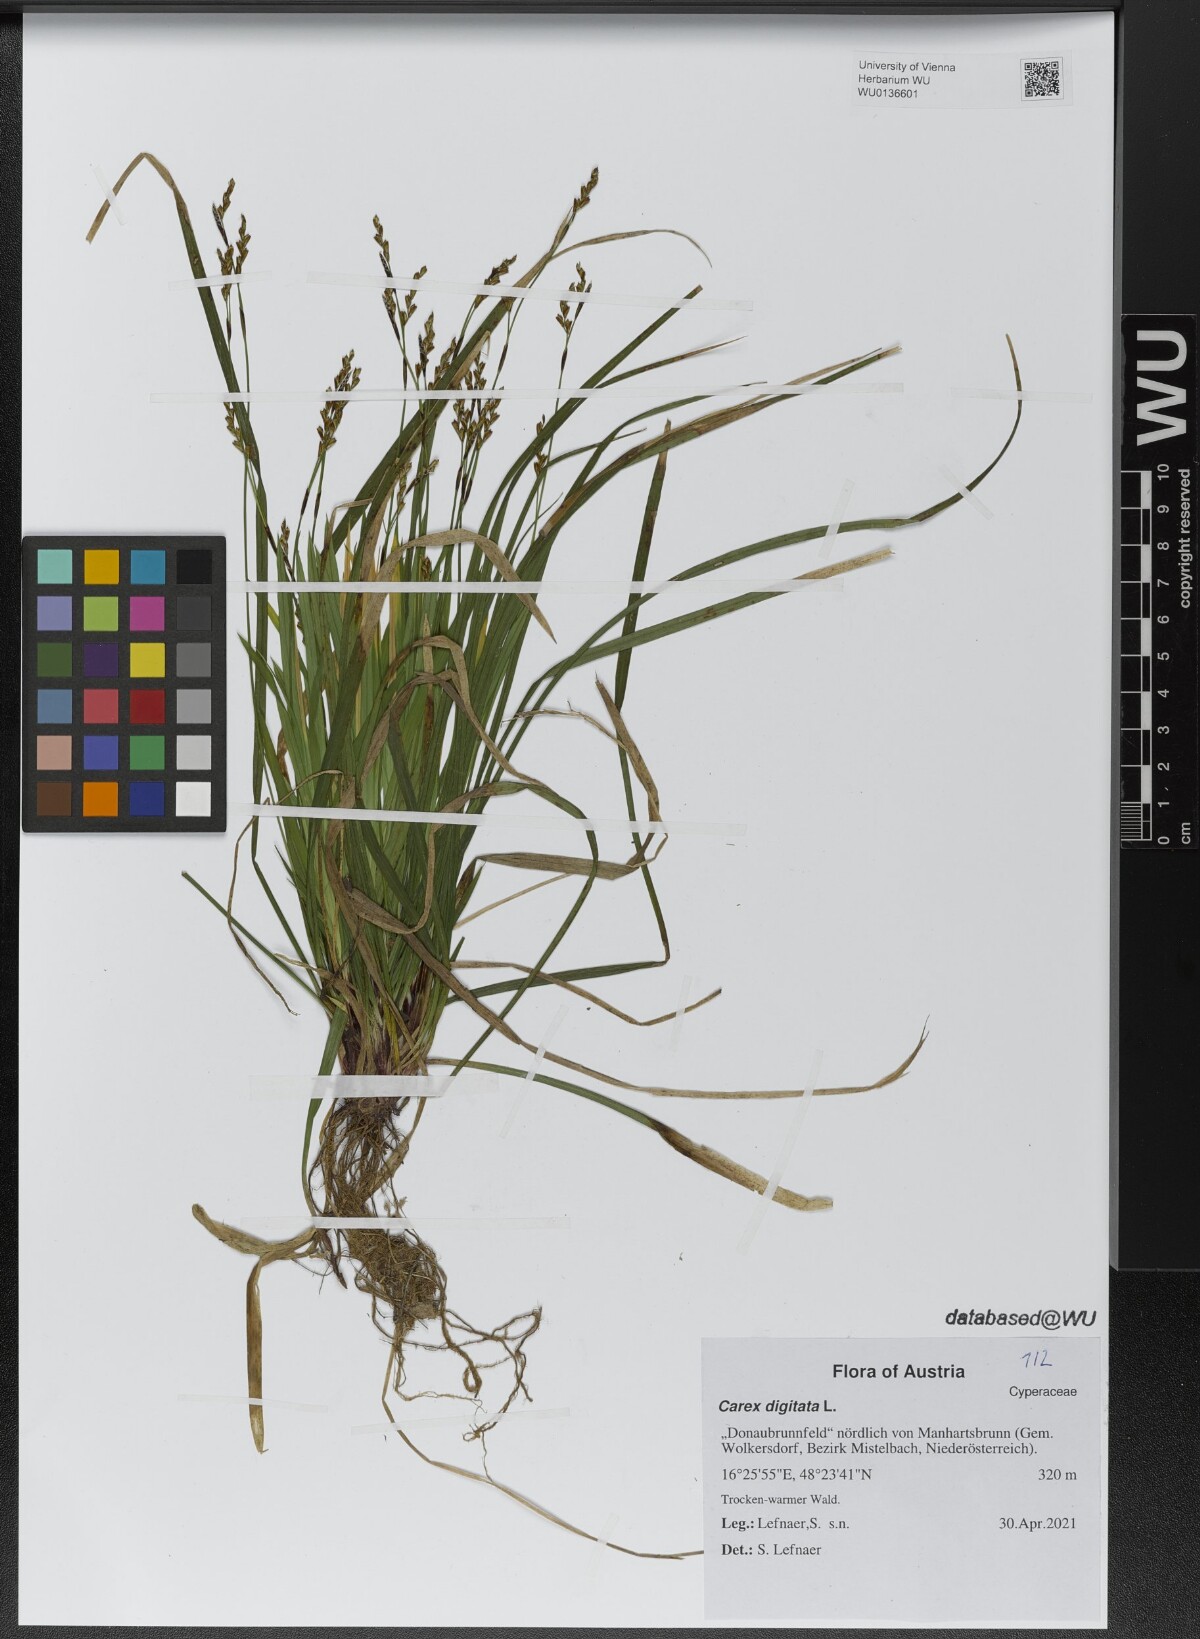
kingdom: Plantae
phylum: Tracheophyta
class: Liliopsida
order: Poales
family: Cyperaceae
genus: Carex
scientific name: Carex digitata
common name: Fingered sedge
